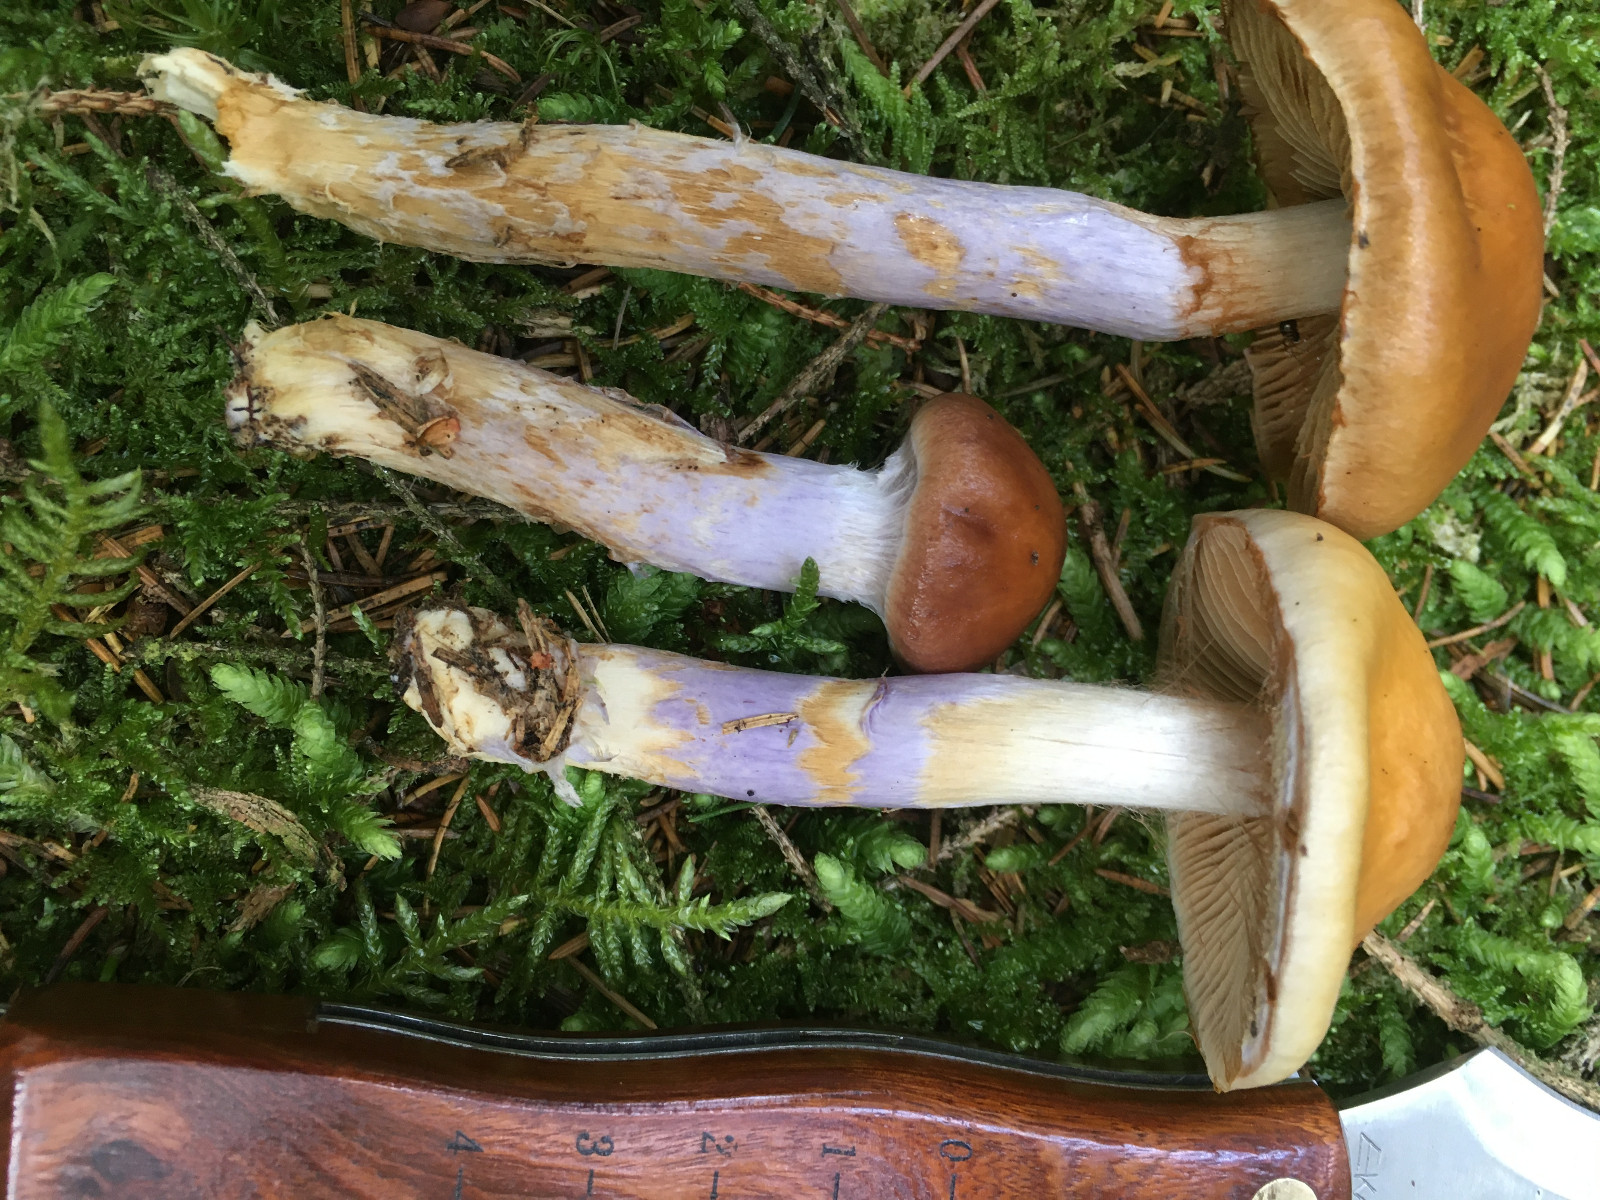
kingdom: Fungi
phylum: Basidiomycota
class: Agaricomycetes
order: Agaricales
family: Cortinariaceae
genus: Cortinarius
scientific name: Cortinarius collinitus
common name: spættet slørhat
